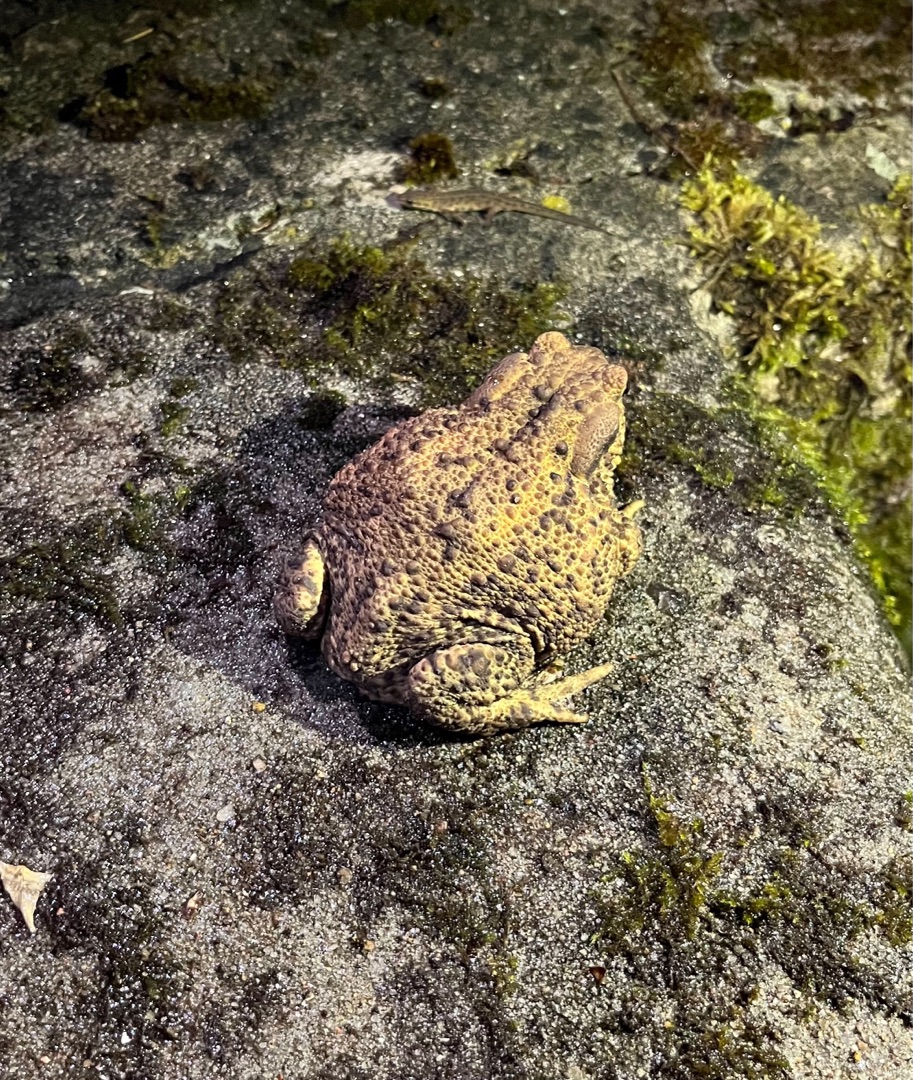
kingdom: Animalia
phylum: Chordata
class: Amphibia
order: Anura
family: Bufonidae
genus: Bufo
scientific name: Bufo bufo
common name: Skrubtudse
